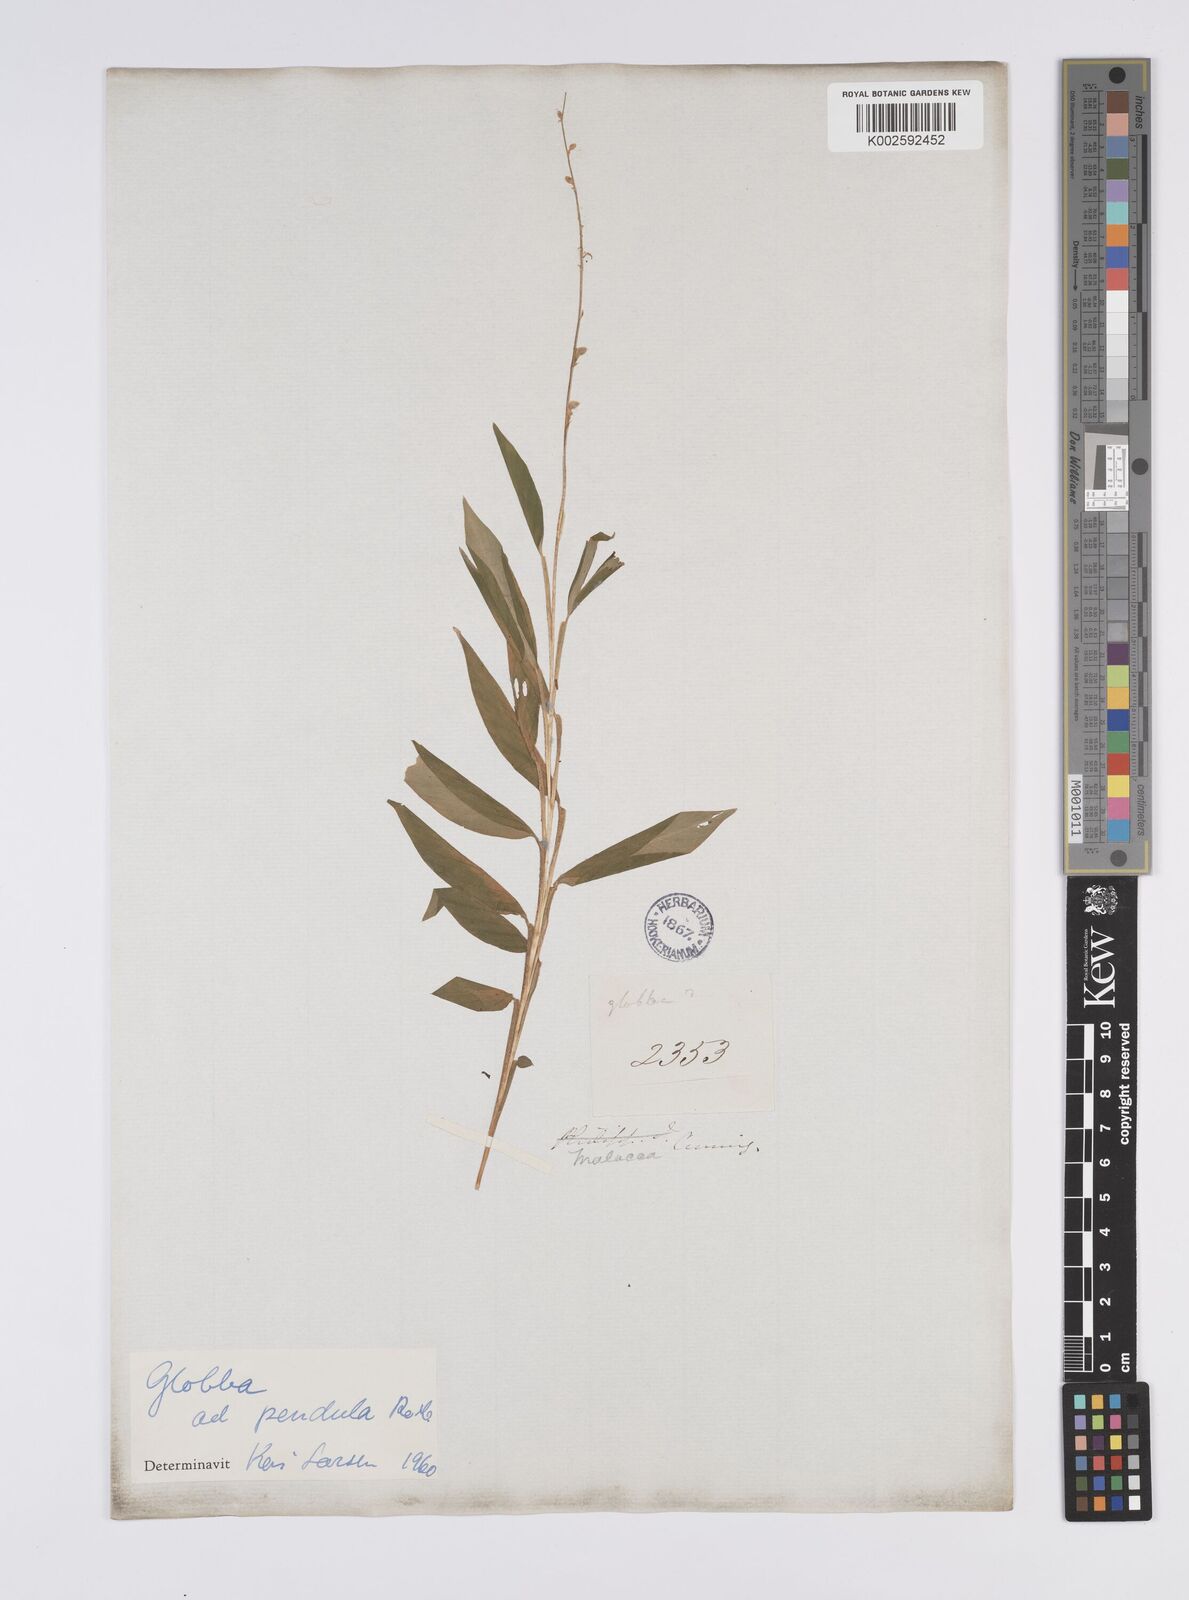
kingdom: Plantae
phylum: Tracheophyta
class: Liliopsida
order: Zingiberales
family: Zingiberaceae
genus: Globba
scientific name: Globba pendula
